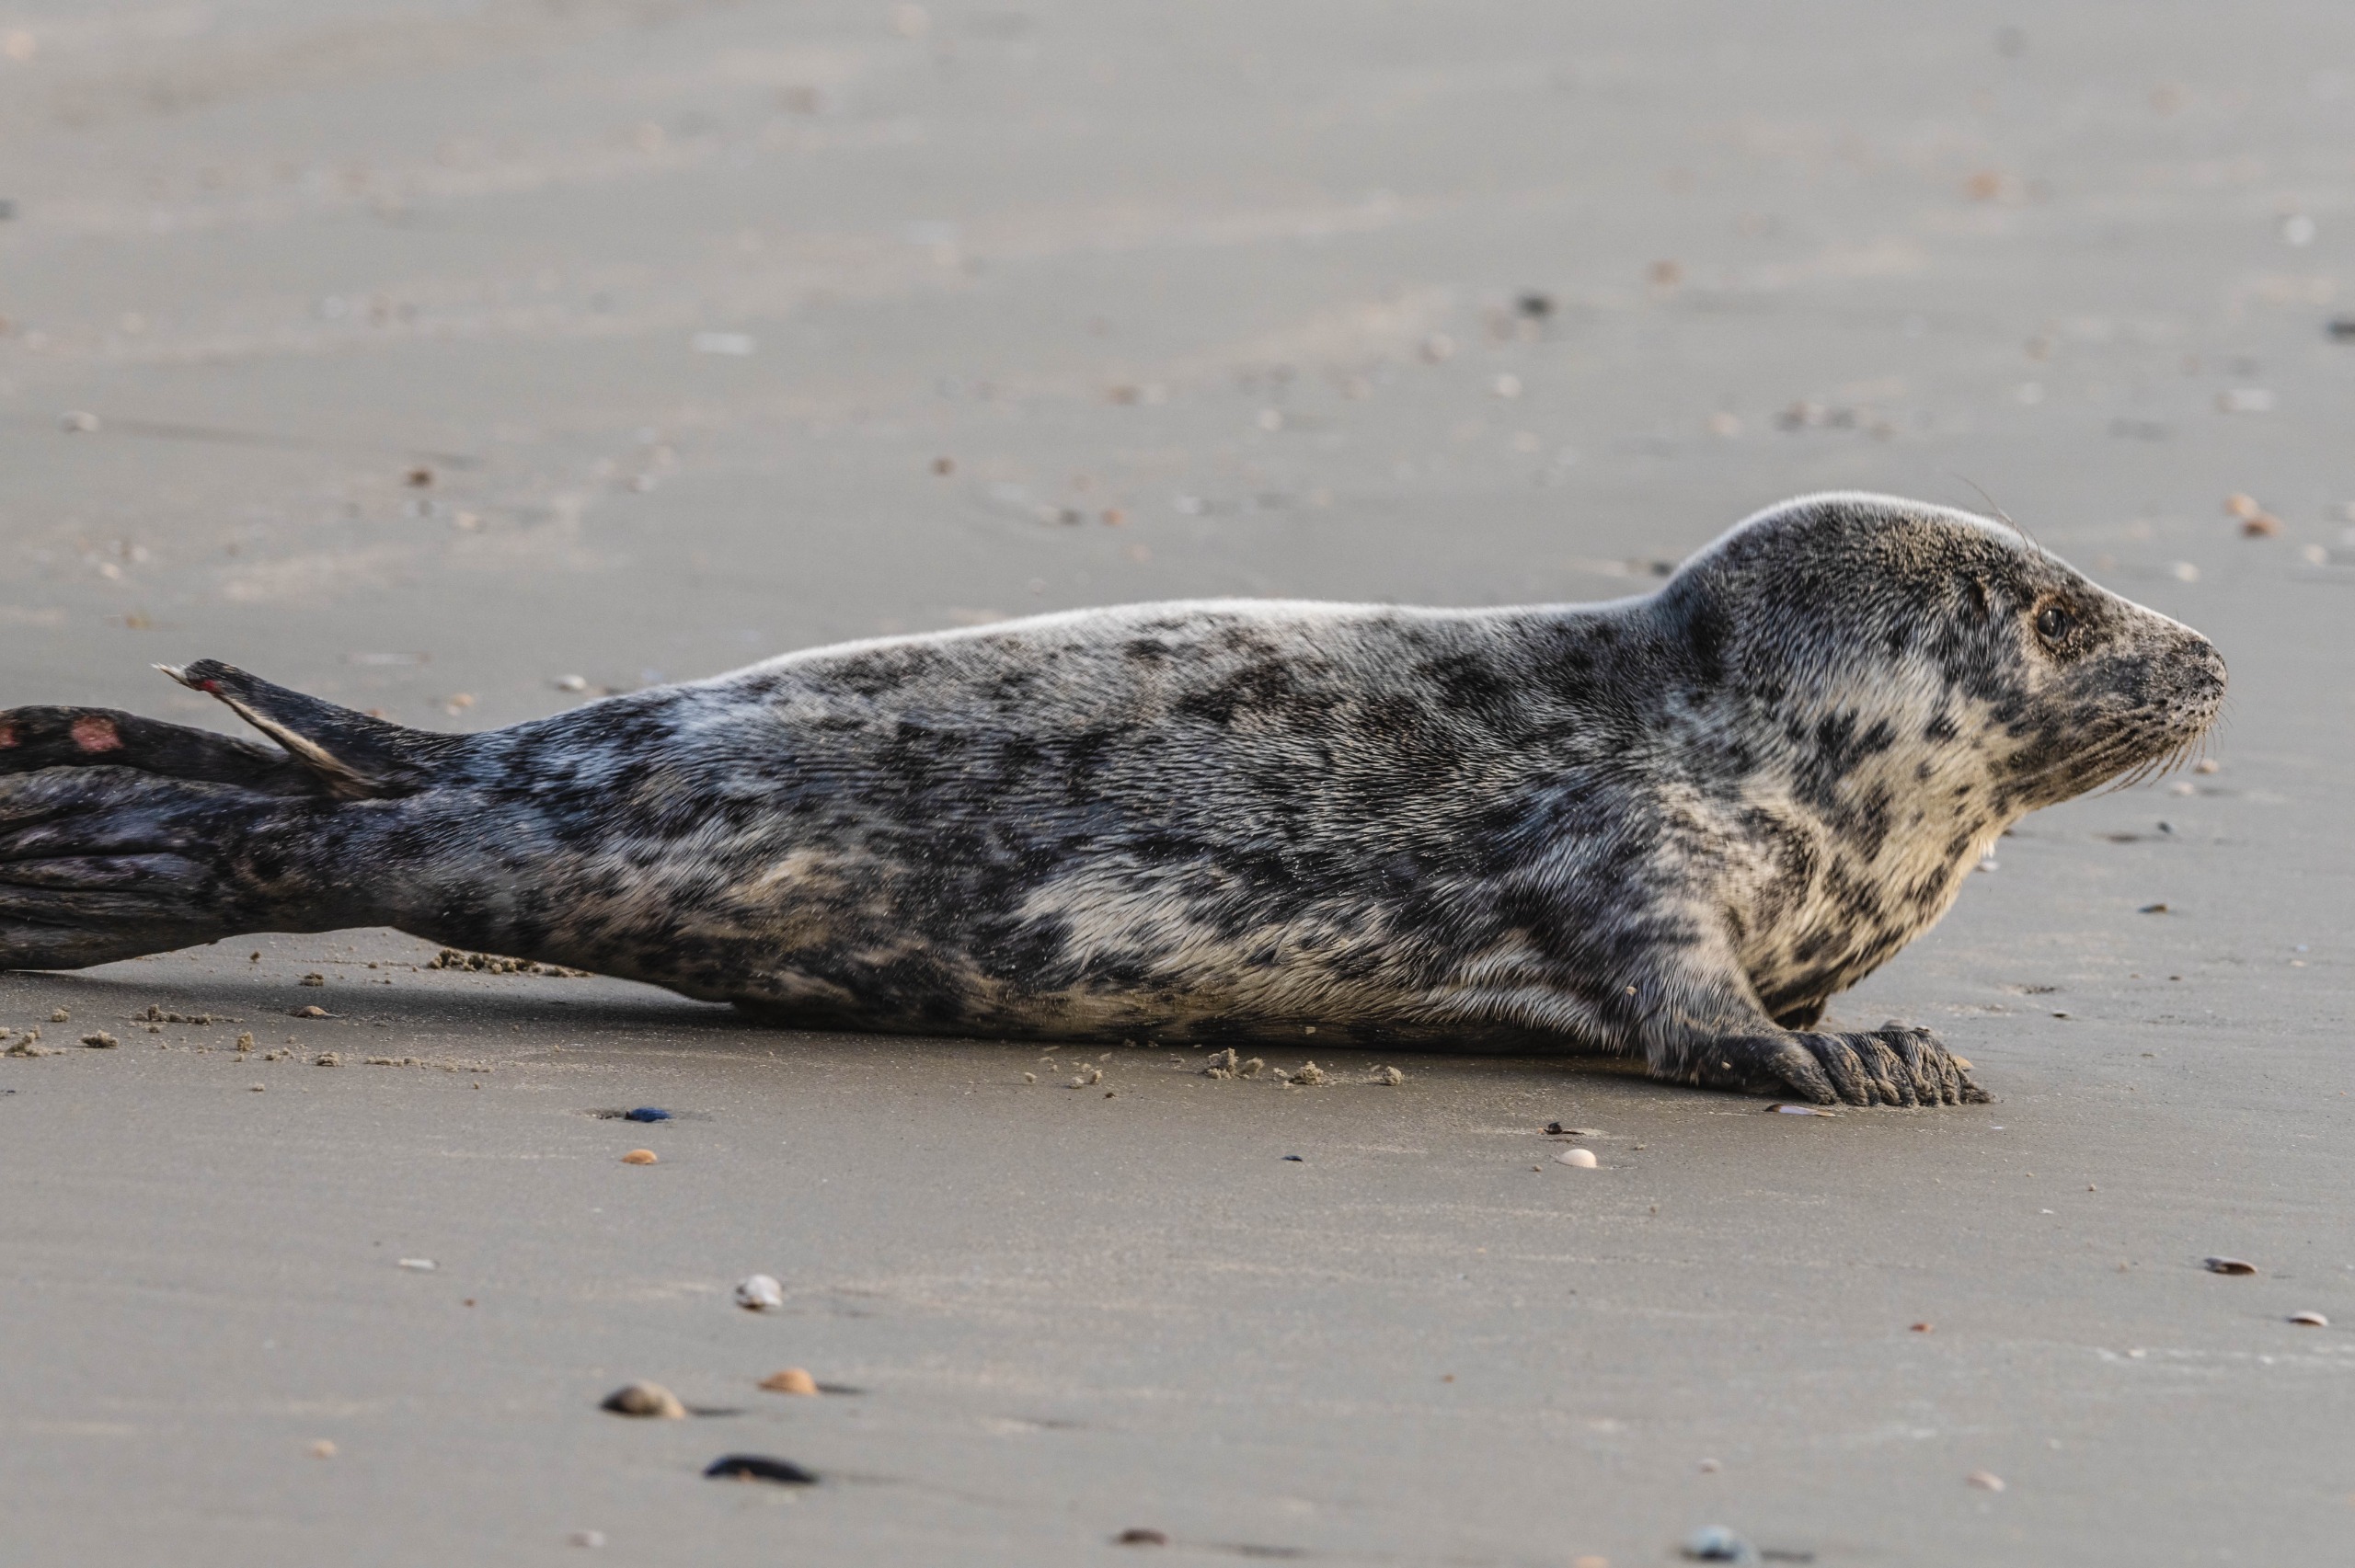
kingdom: Animalia
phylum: Chordata
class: Mammalia
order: Carnivora
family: Phocidae
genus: Halichoerus
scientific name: Halichoerus grypus
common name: Gråsæl
